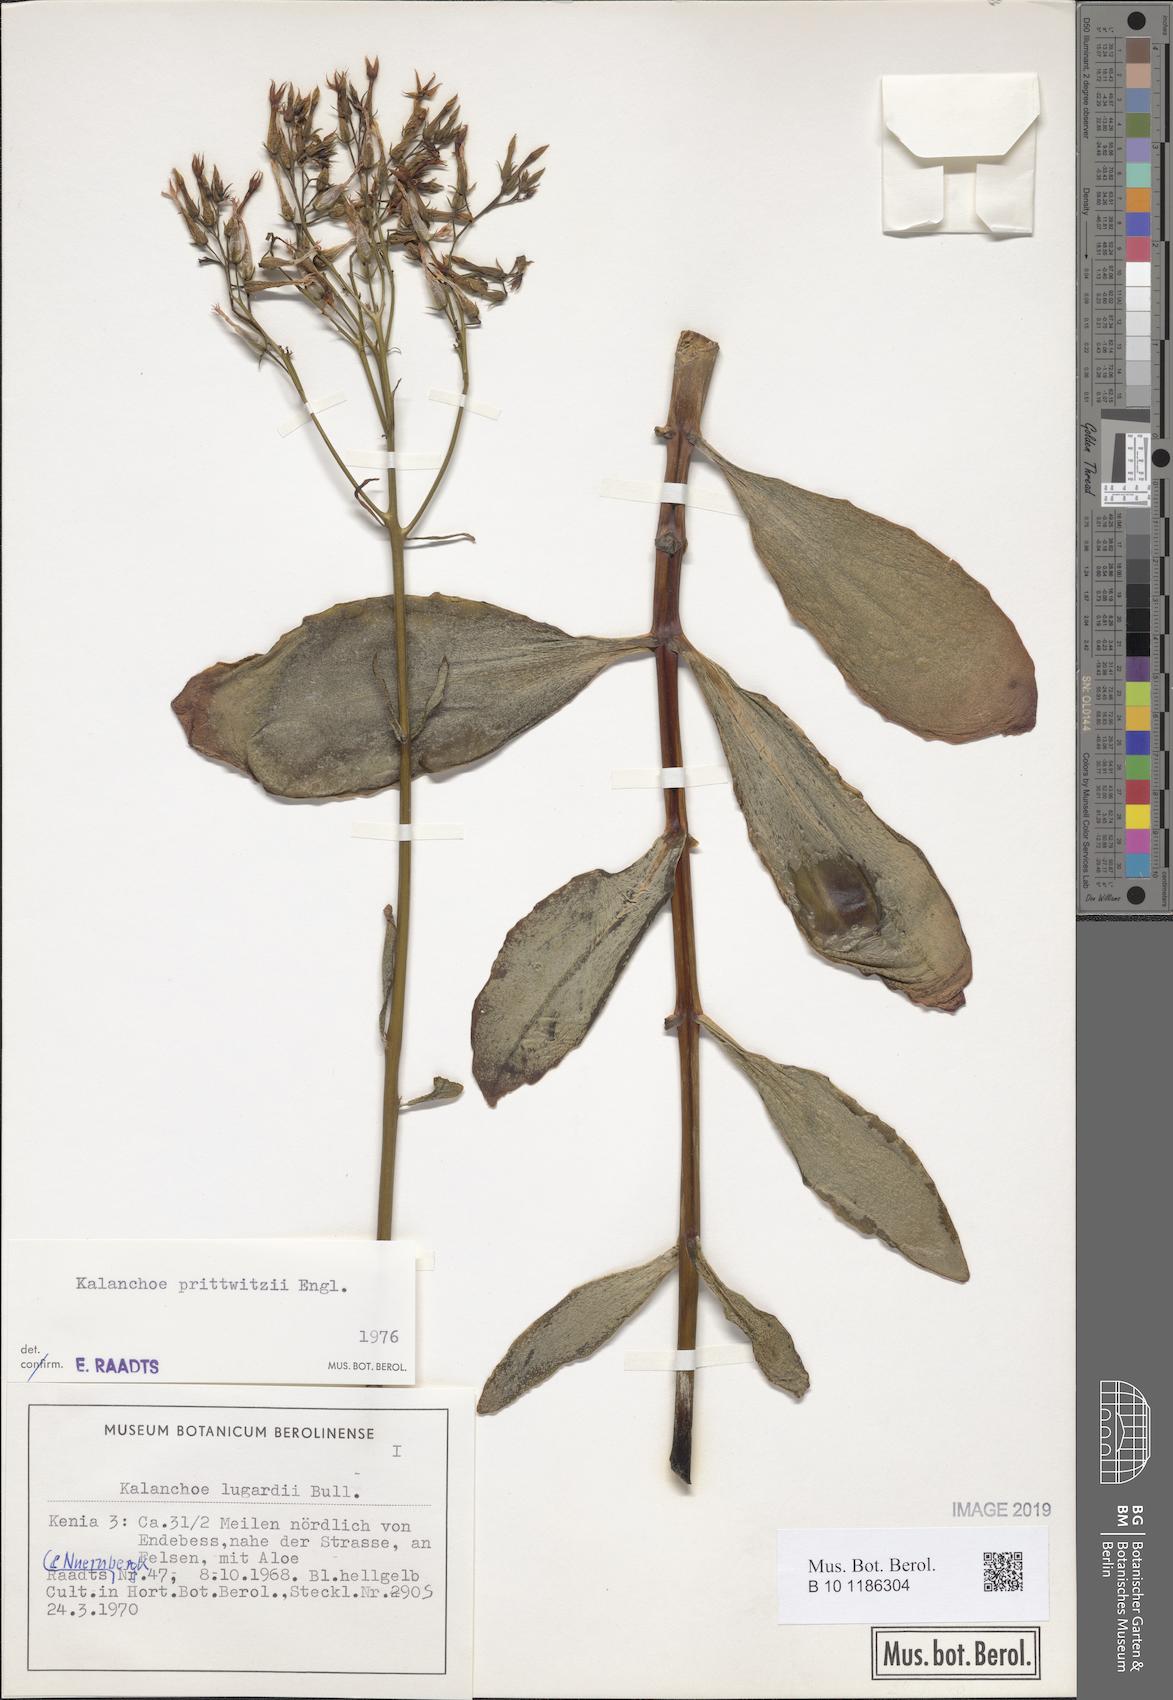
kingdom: Plantae
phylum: Tracheophyta
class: Magnoliopsida
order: Saxifragales
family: Crassulaceae
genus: Kalanchoe
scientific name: Kalanchoe prittwitzii
